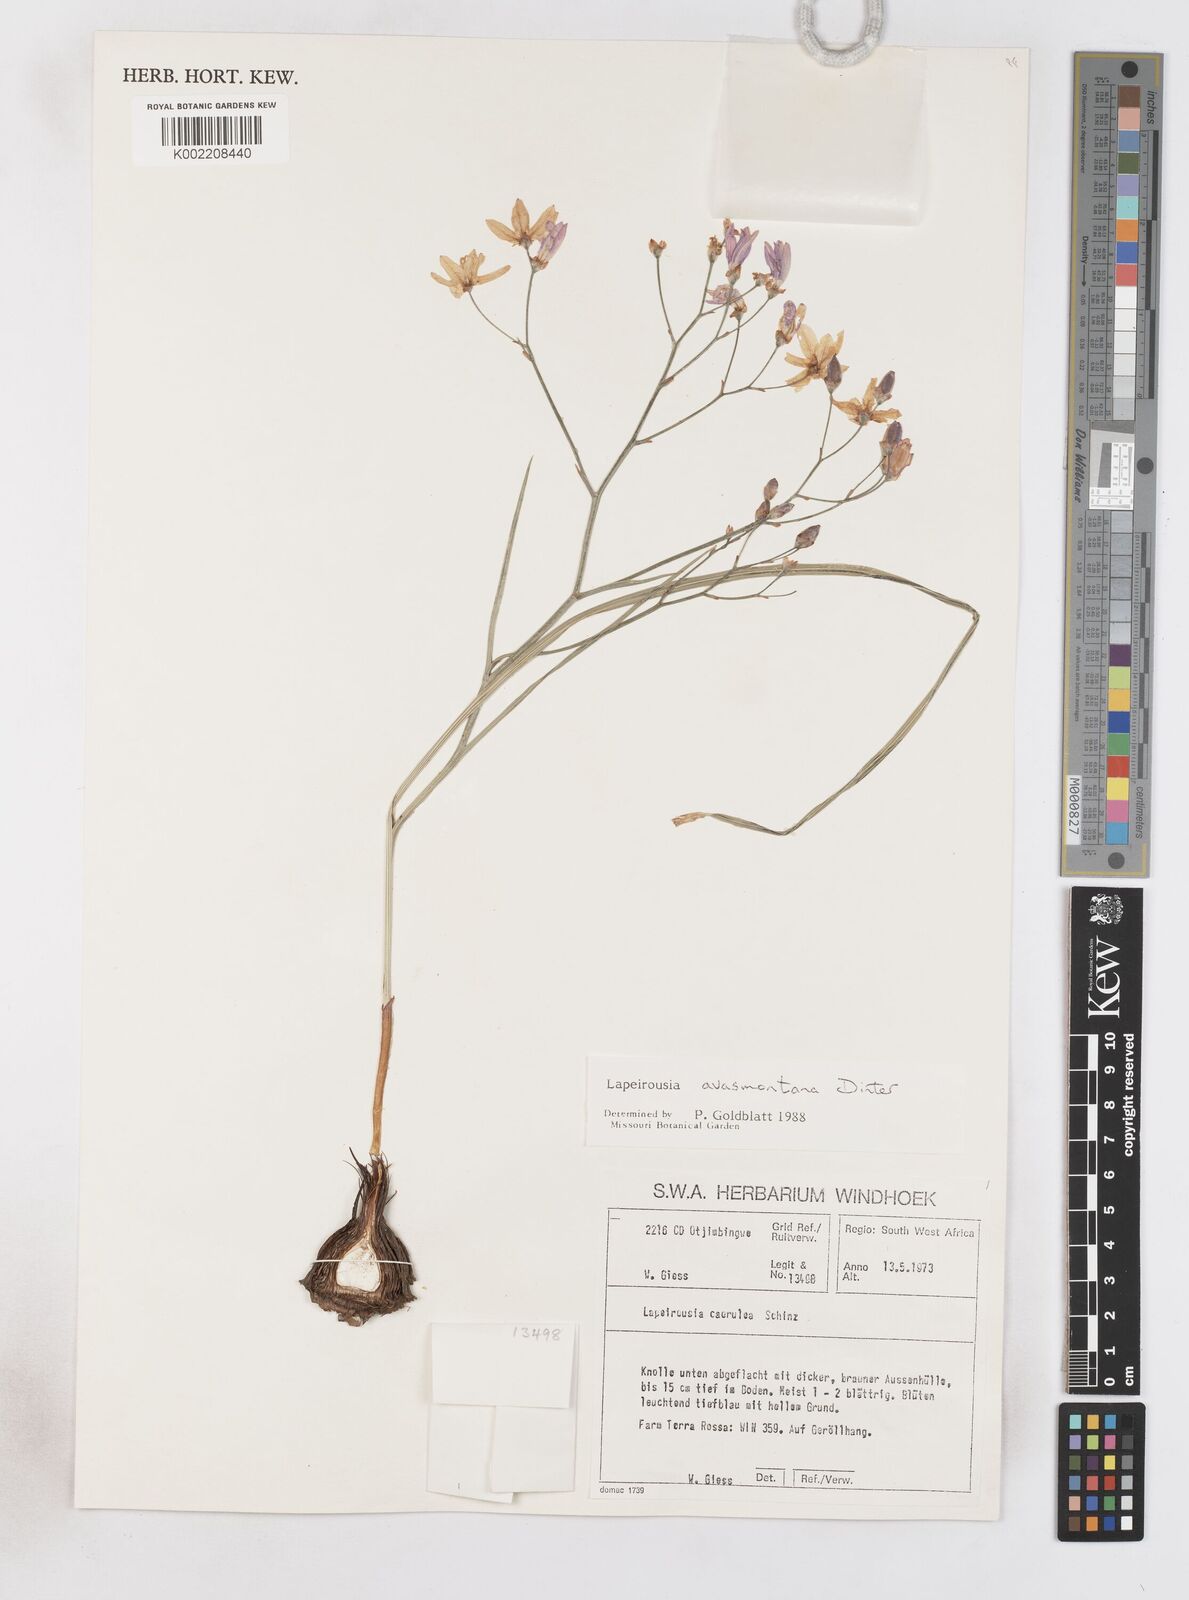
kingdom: Plantae
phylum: Tracheophyta
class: Liliopsida
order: Asparagales
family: Iridaceae
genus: Afrosolen
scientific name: Afrosolen avasmontanus
